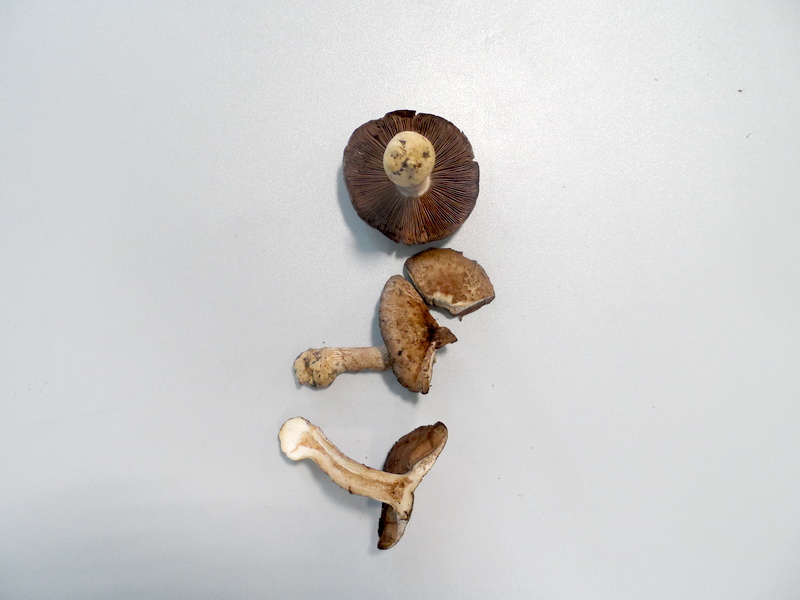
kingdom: Fungi
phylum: Basidiomycota
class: Agaricomycetes
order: Agaricales
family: Agaricaceae
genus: Agaricus
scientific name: Agaricus cupreobrunneus
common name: Copper mushrooom
